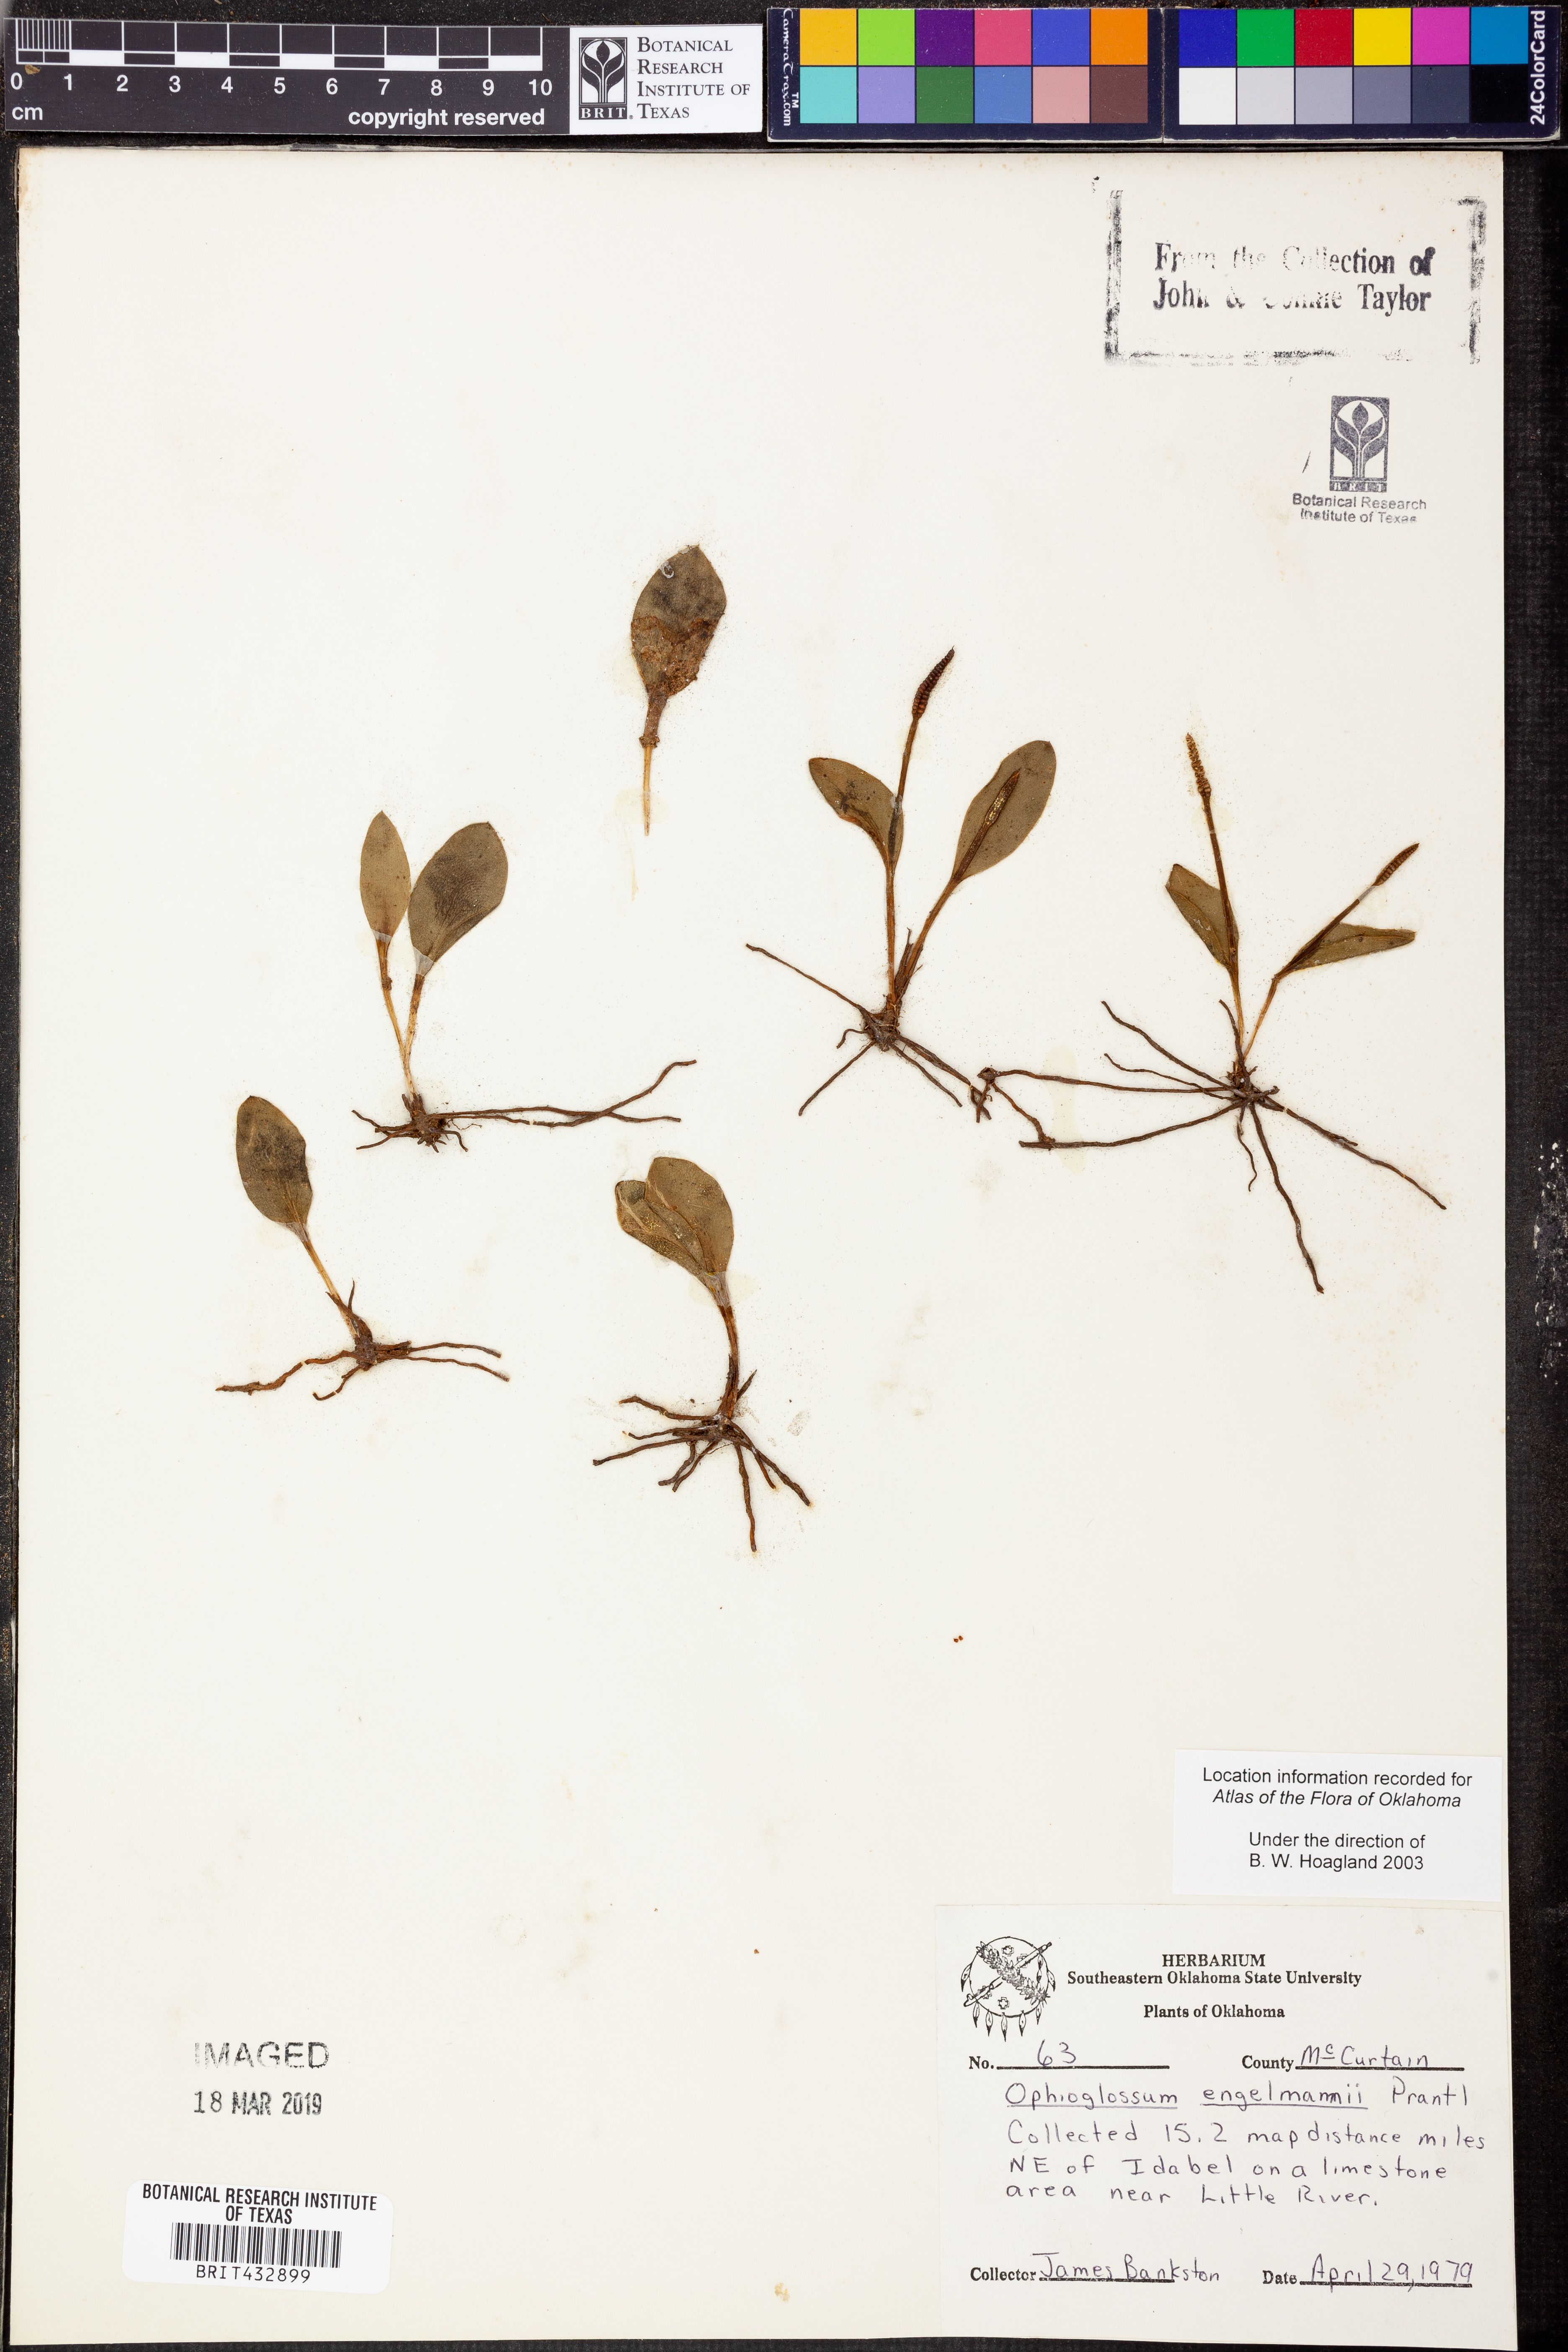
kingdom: Plantae
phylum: Tracheophyta
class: Polypodiopsida
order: Ophioglossales
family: Ophioglossaceae
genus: Ophioglossum
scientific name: Ophioglossum engelmannii
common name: Limestone adder's-tongue
